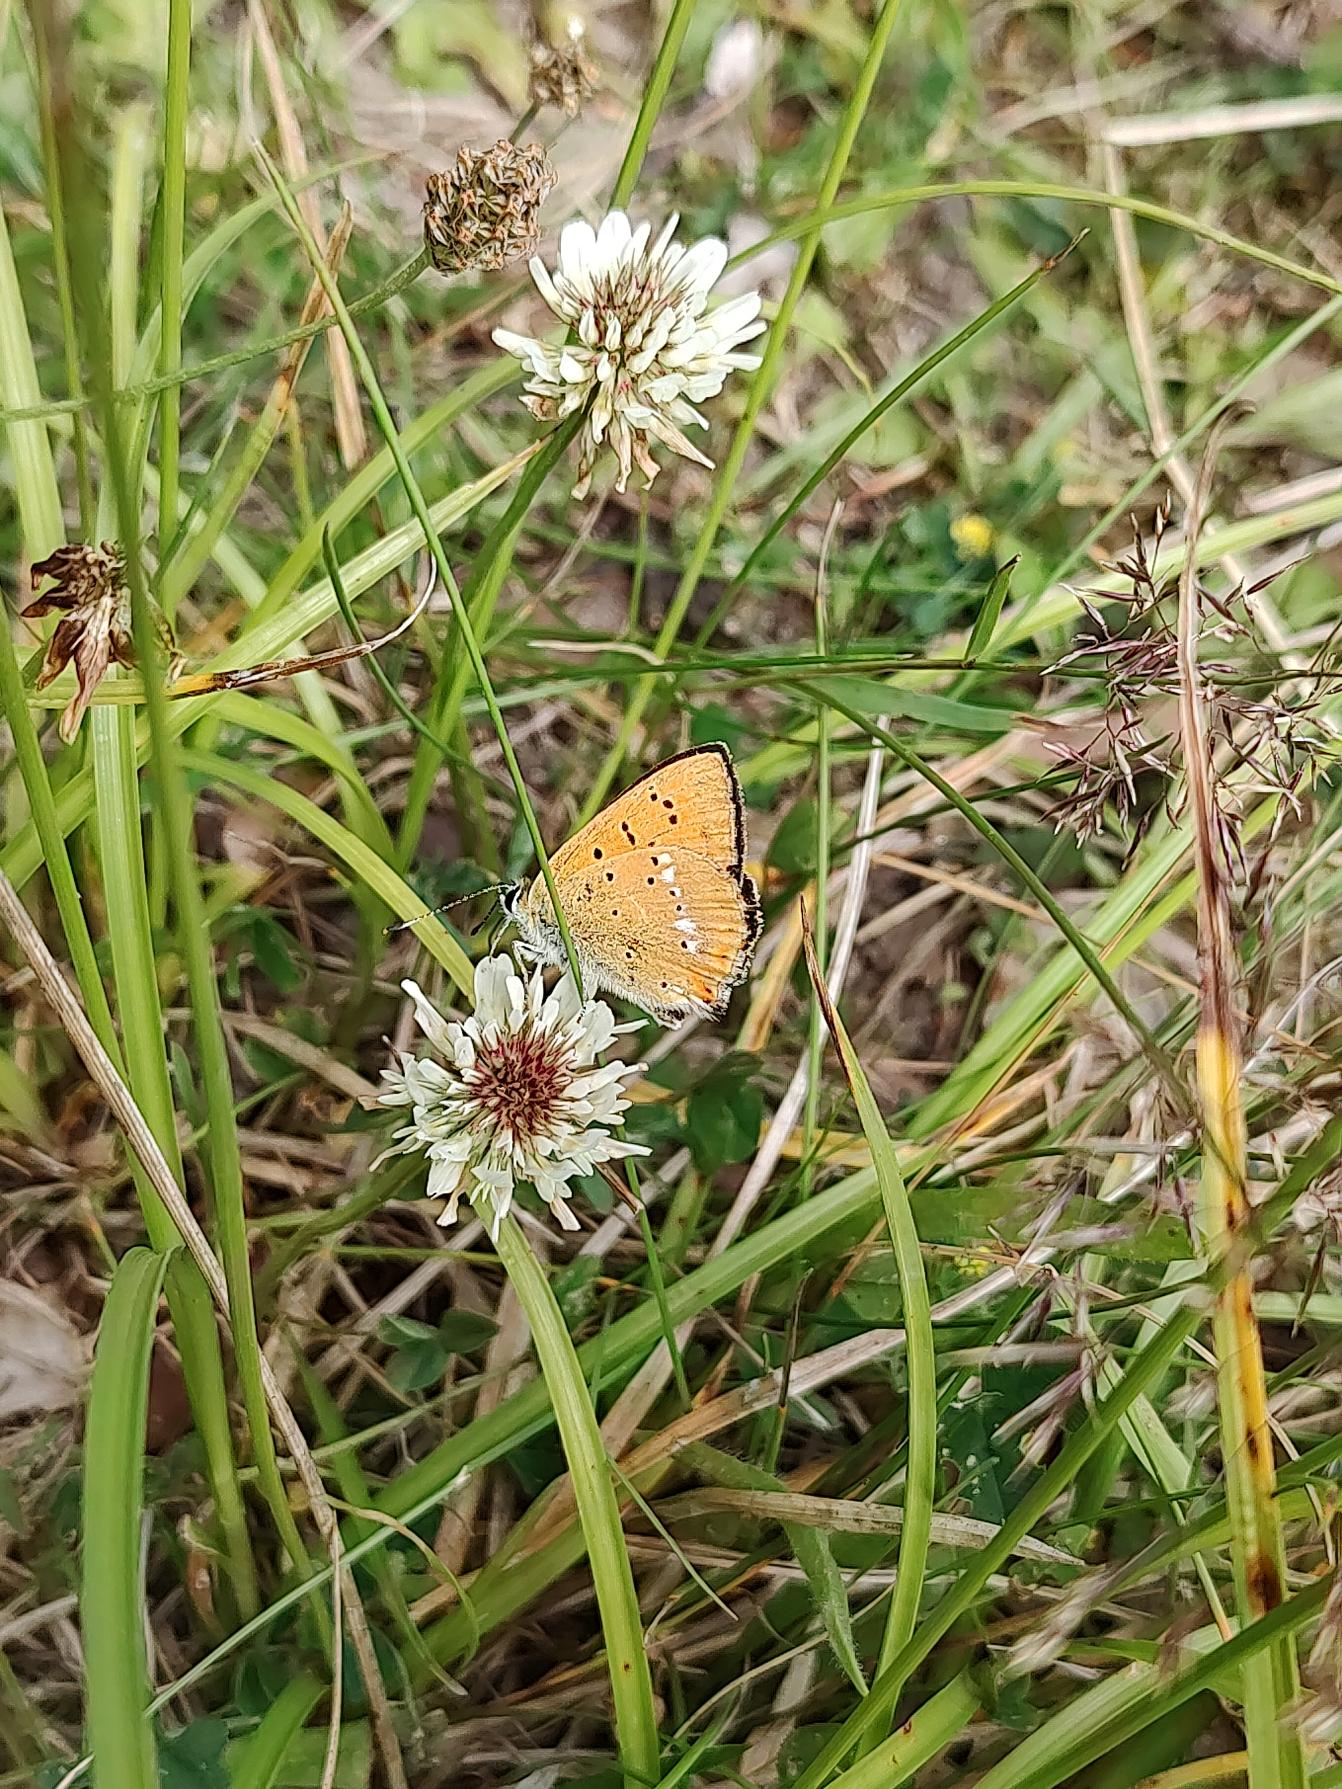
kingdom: Animalia
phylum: Arthropoda
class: Insecta
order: Lepidoptera
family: Lycaenidae
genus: Lycaena
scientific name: Lycaena virgaureae
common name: Dukatsommerfugl
